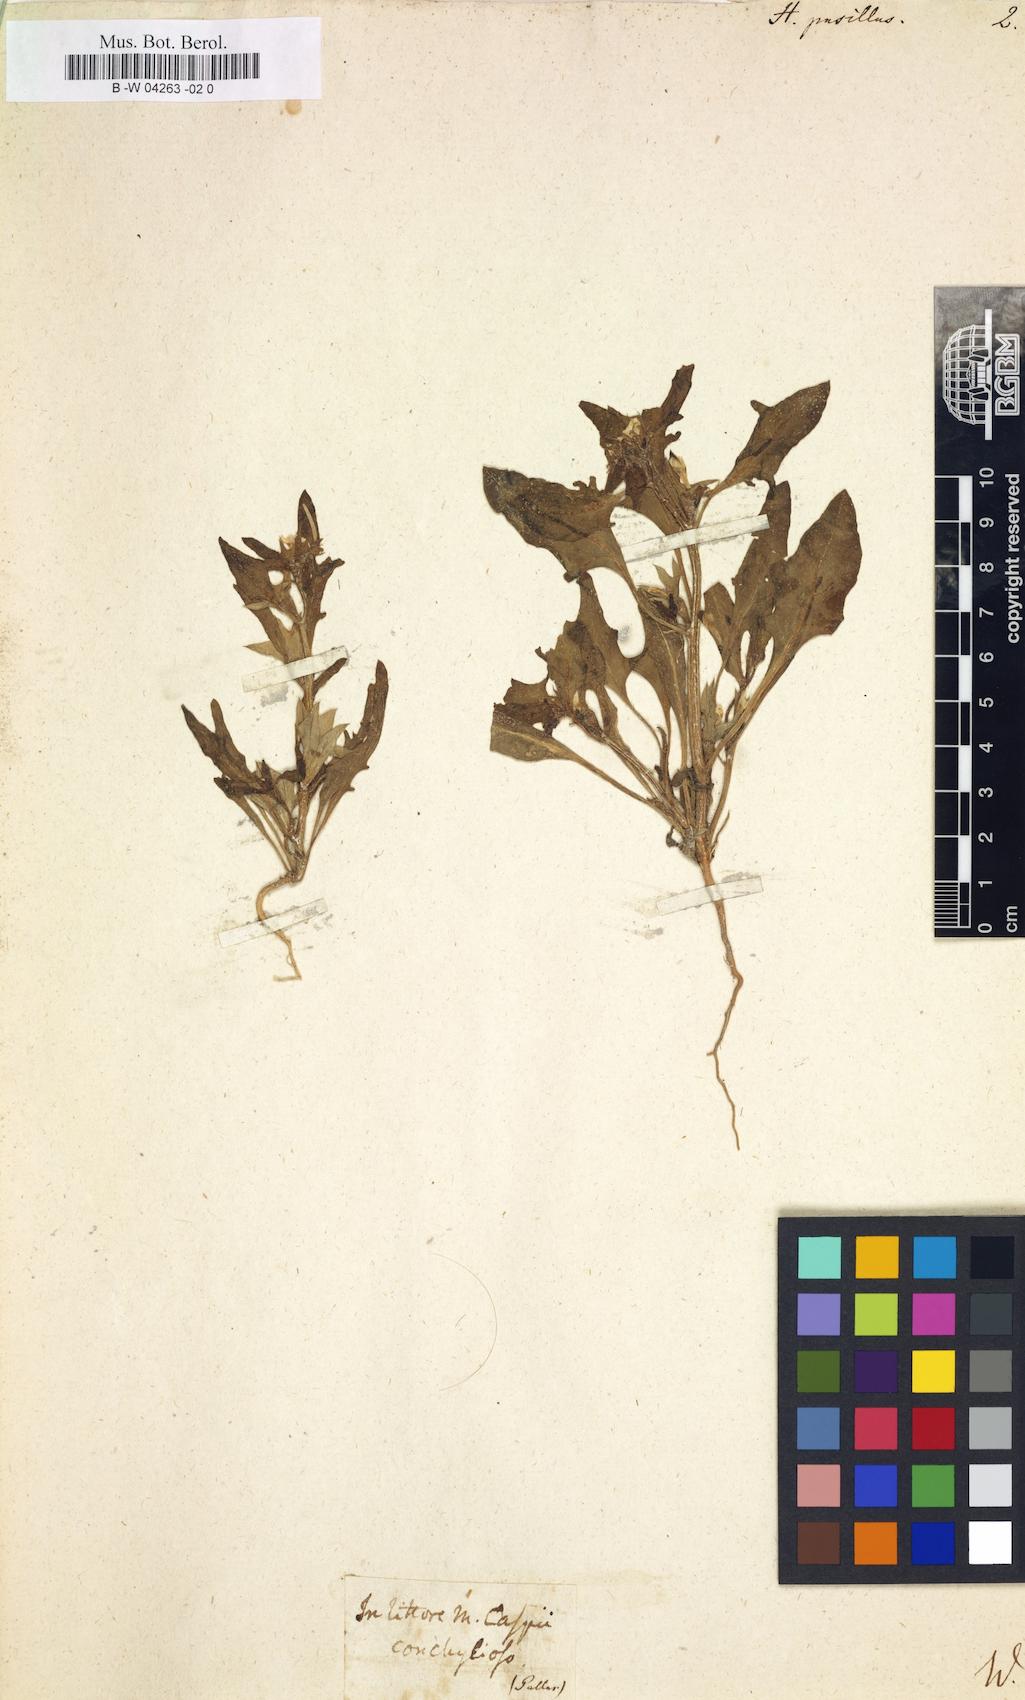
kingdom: Plantae
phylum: Tracheophyta
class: Magnoliopsida
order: Solanales
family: Solanaceae
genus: Hyoscyamus
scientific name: Hyoscyamus pusillus
